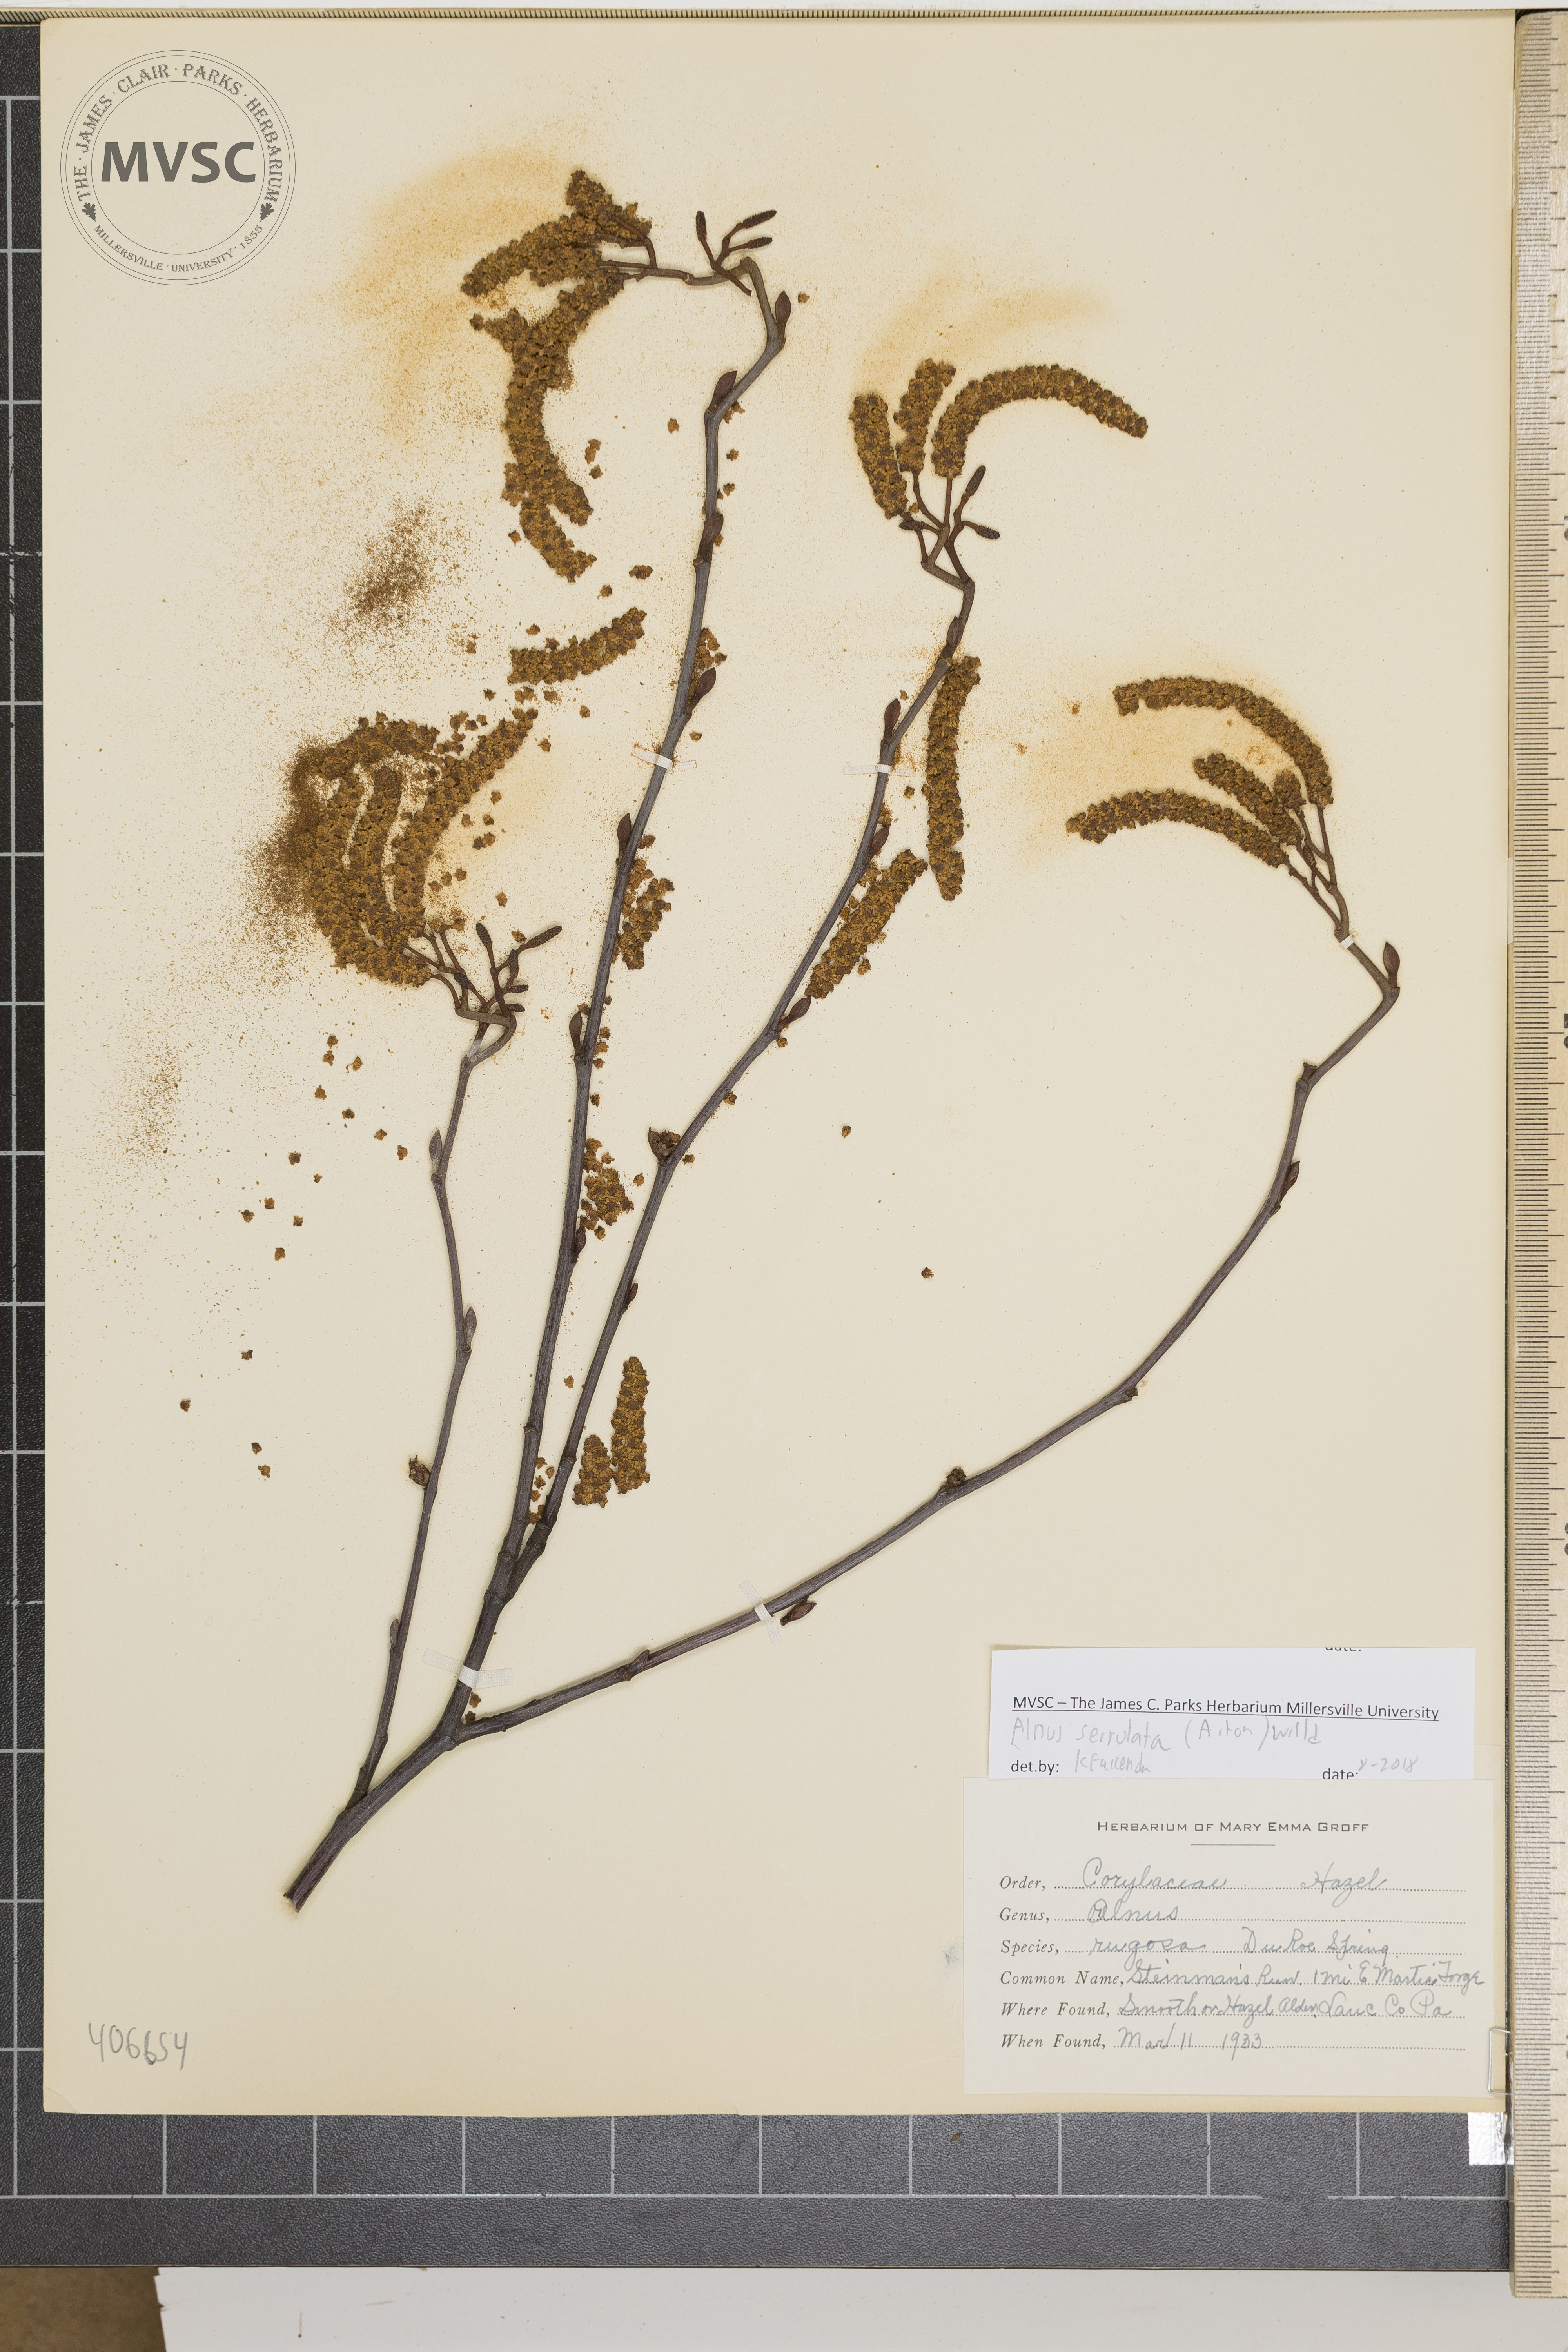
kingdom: Plantae
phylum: Tracheophyta
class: Magnoliopsida
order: Fagales
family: Betulaceae
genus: Alnus
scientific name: Alnus serrulata
